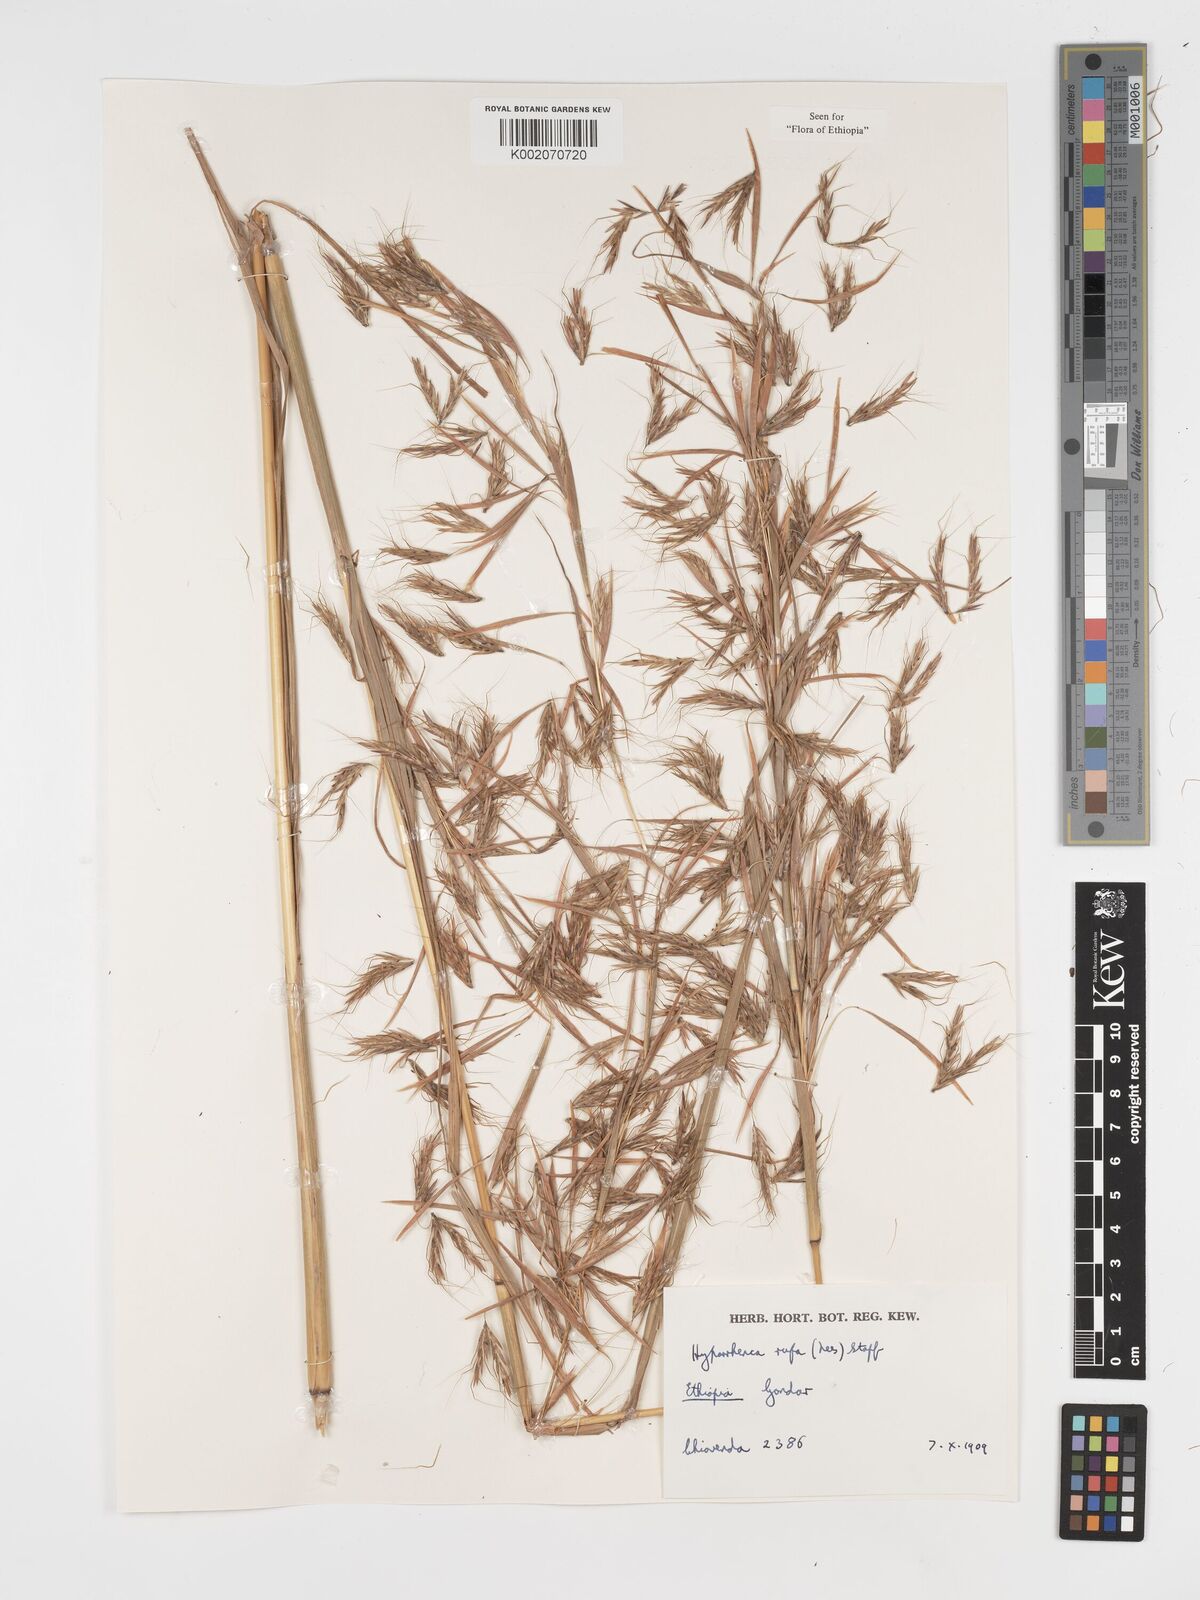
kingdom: Plantae
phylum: Tracheophyta
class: Liliopsida
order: Poales
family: Poaceae
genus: Hyparrhenia
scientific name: Hyparrhenia rufa
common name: Jaraguagrass
